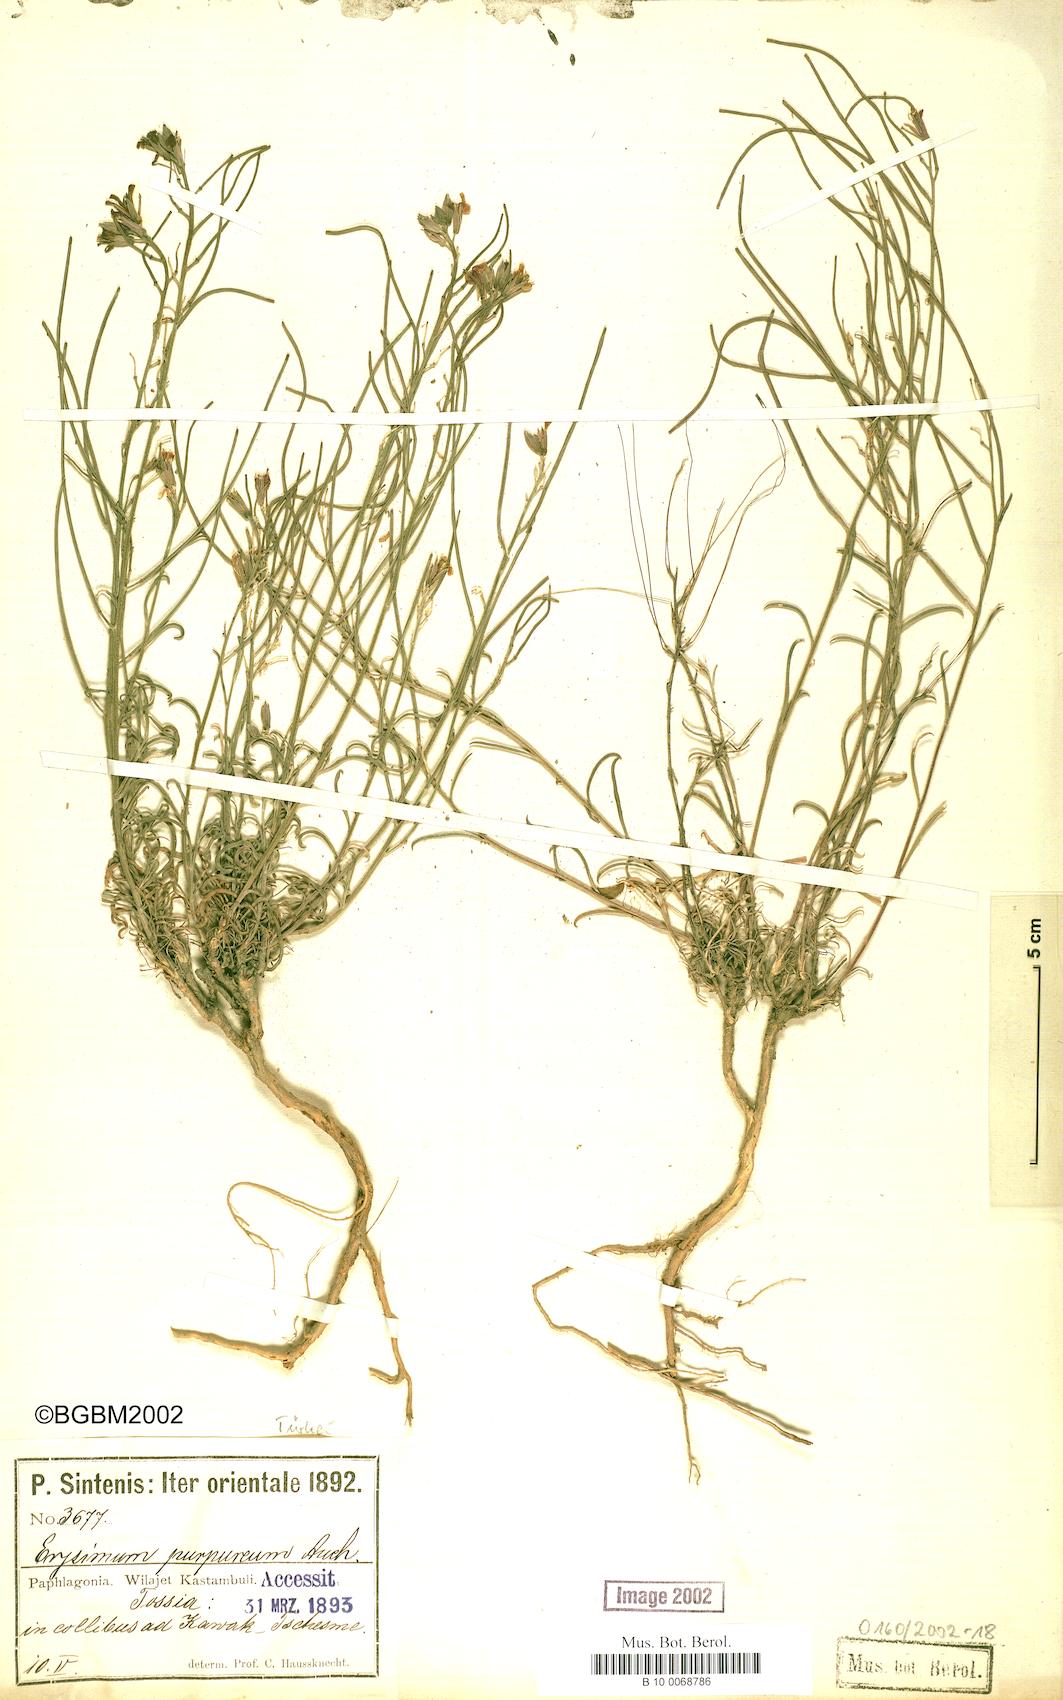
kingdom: Plantae
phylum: Tracheophyta
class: Magnoliopsida
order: Brassicales
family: Brassicaceae
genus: Erysimum
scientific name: Erysimum purpureum
